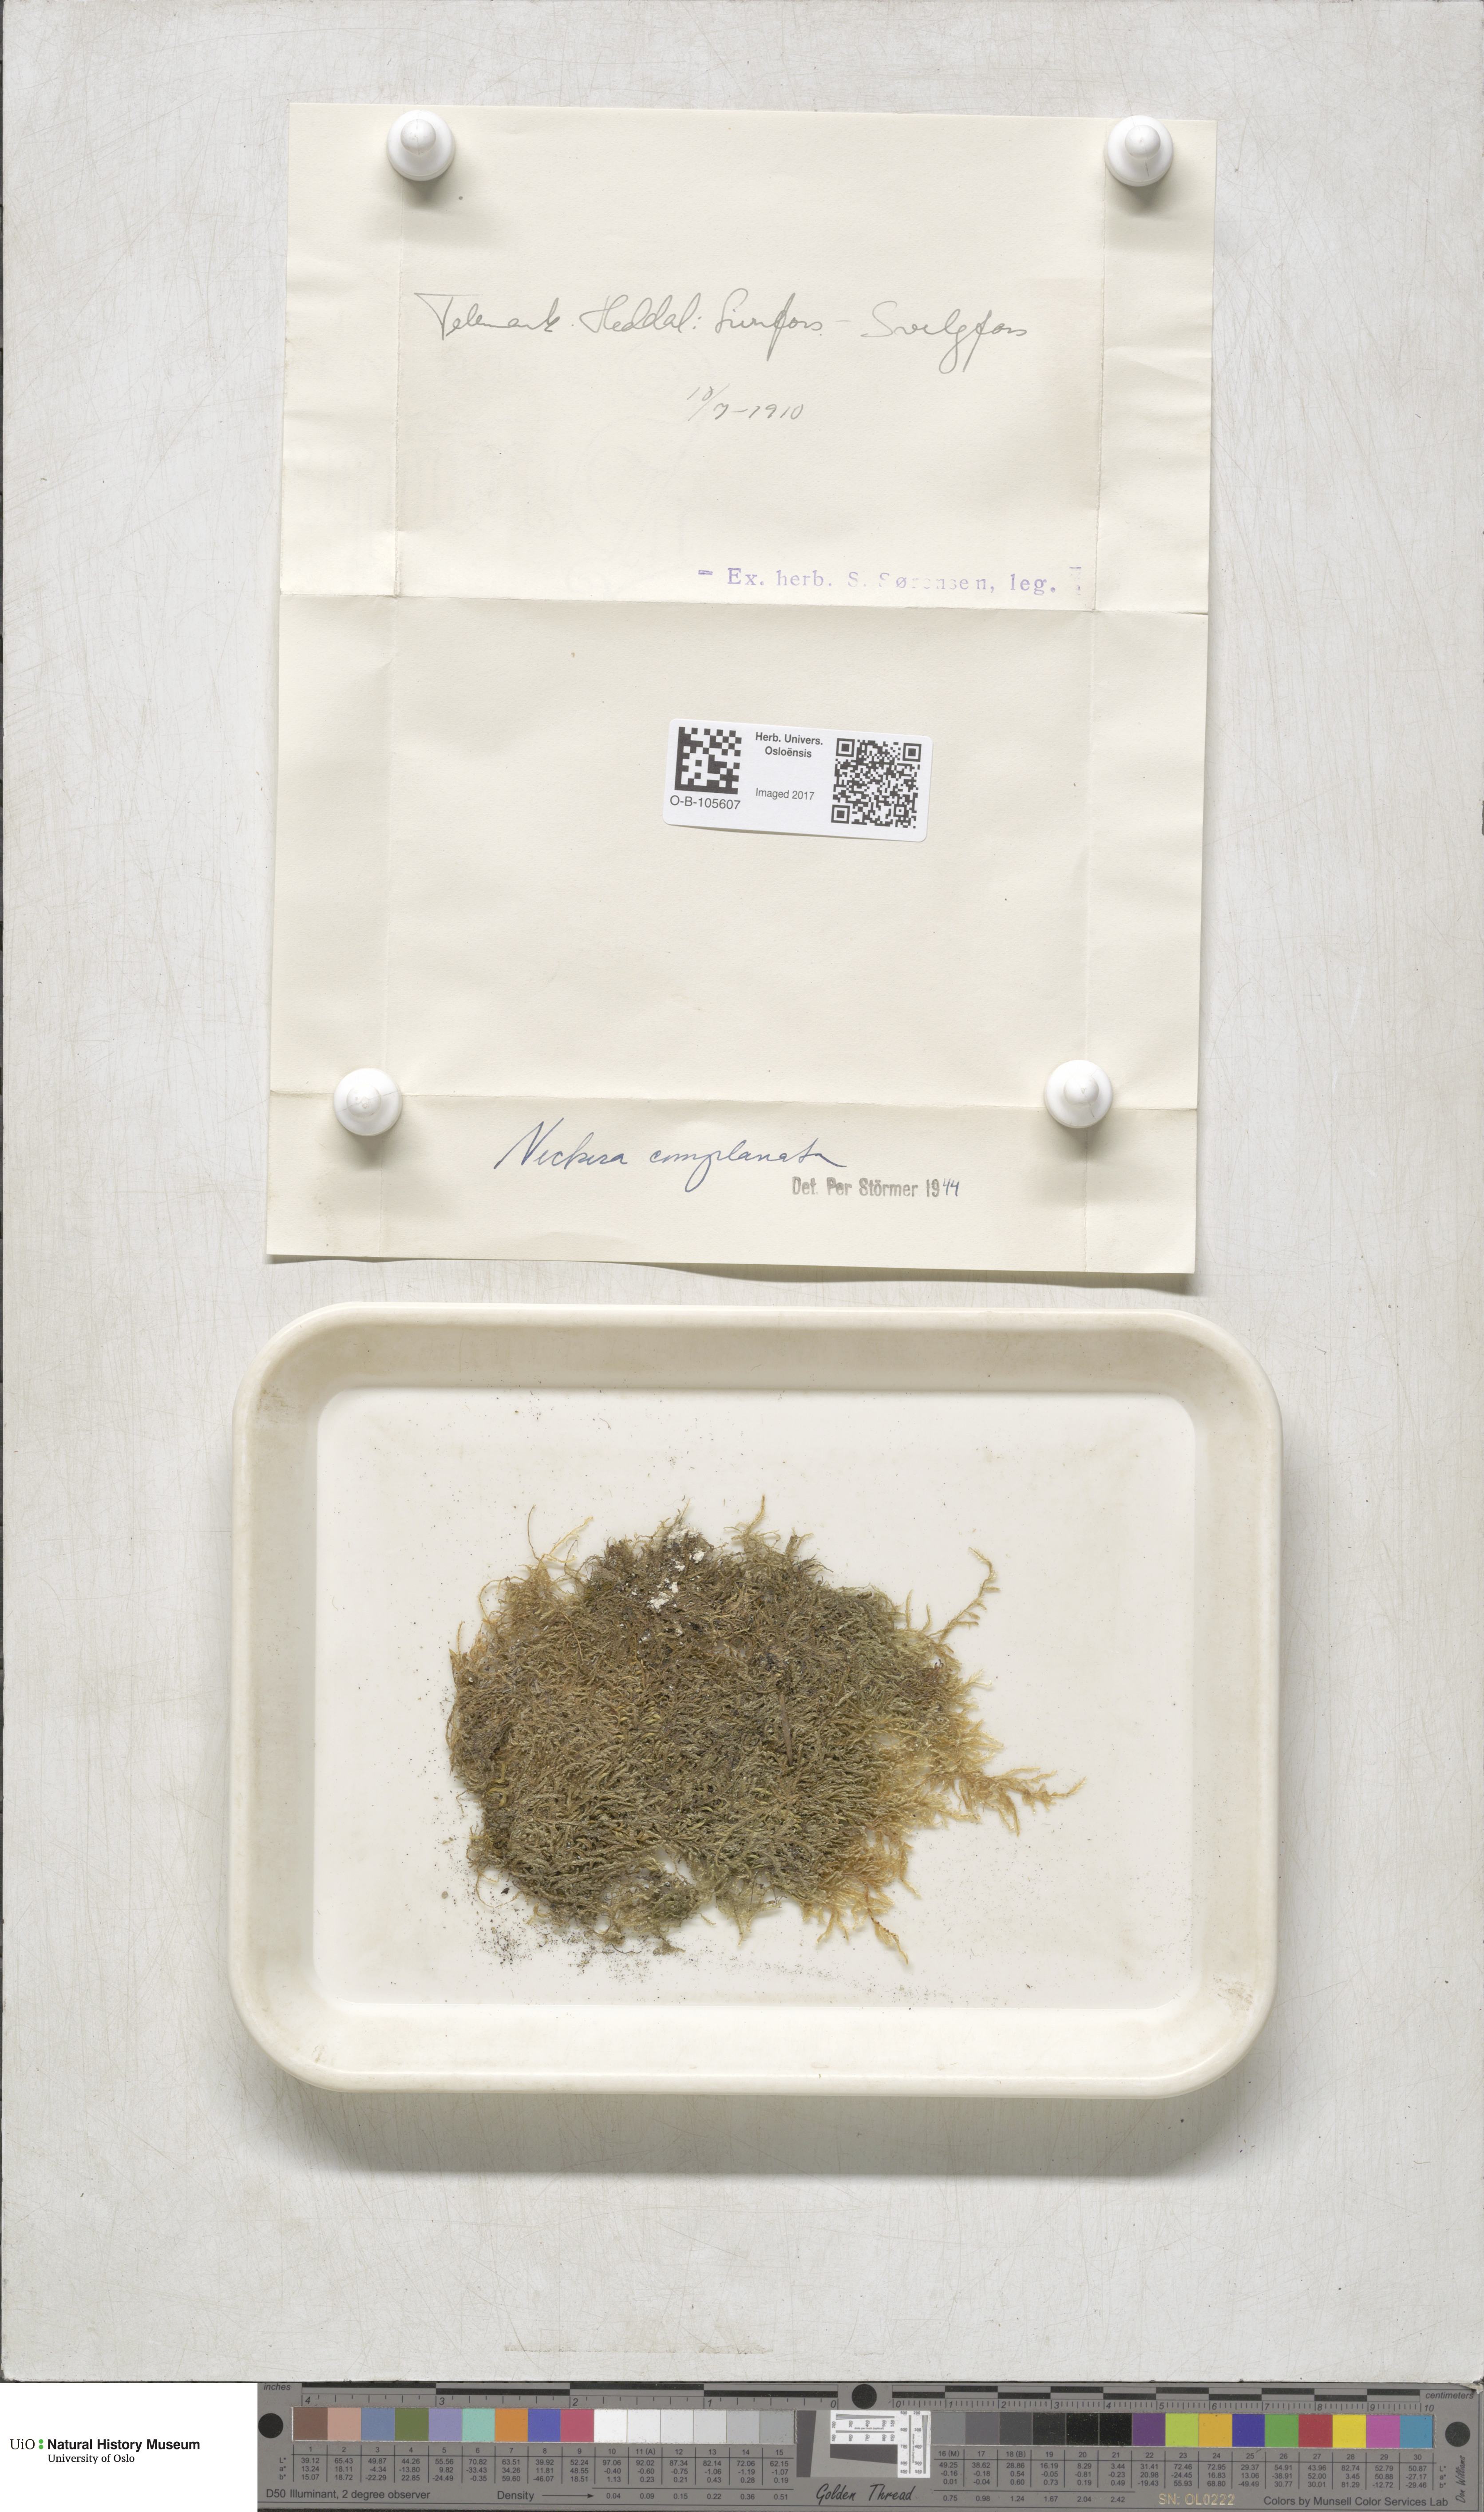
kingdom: Plantae
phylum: Bryophyta
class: Bryopsida
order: Hypnales
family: Neckeraceae
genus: Alleniella
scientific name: Alleniella complanata
